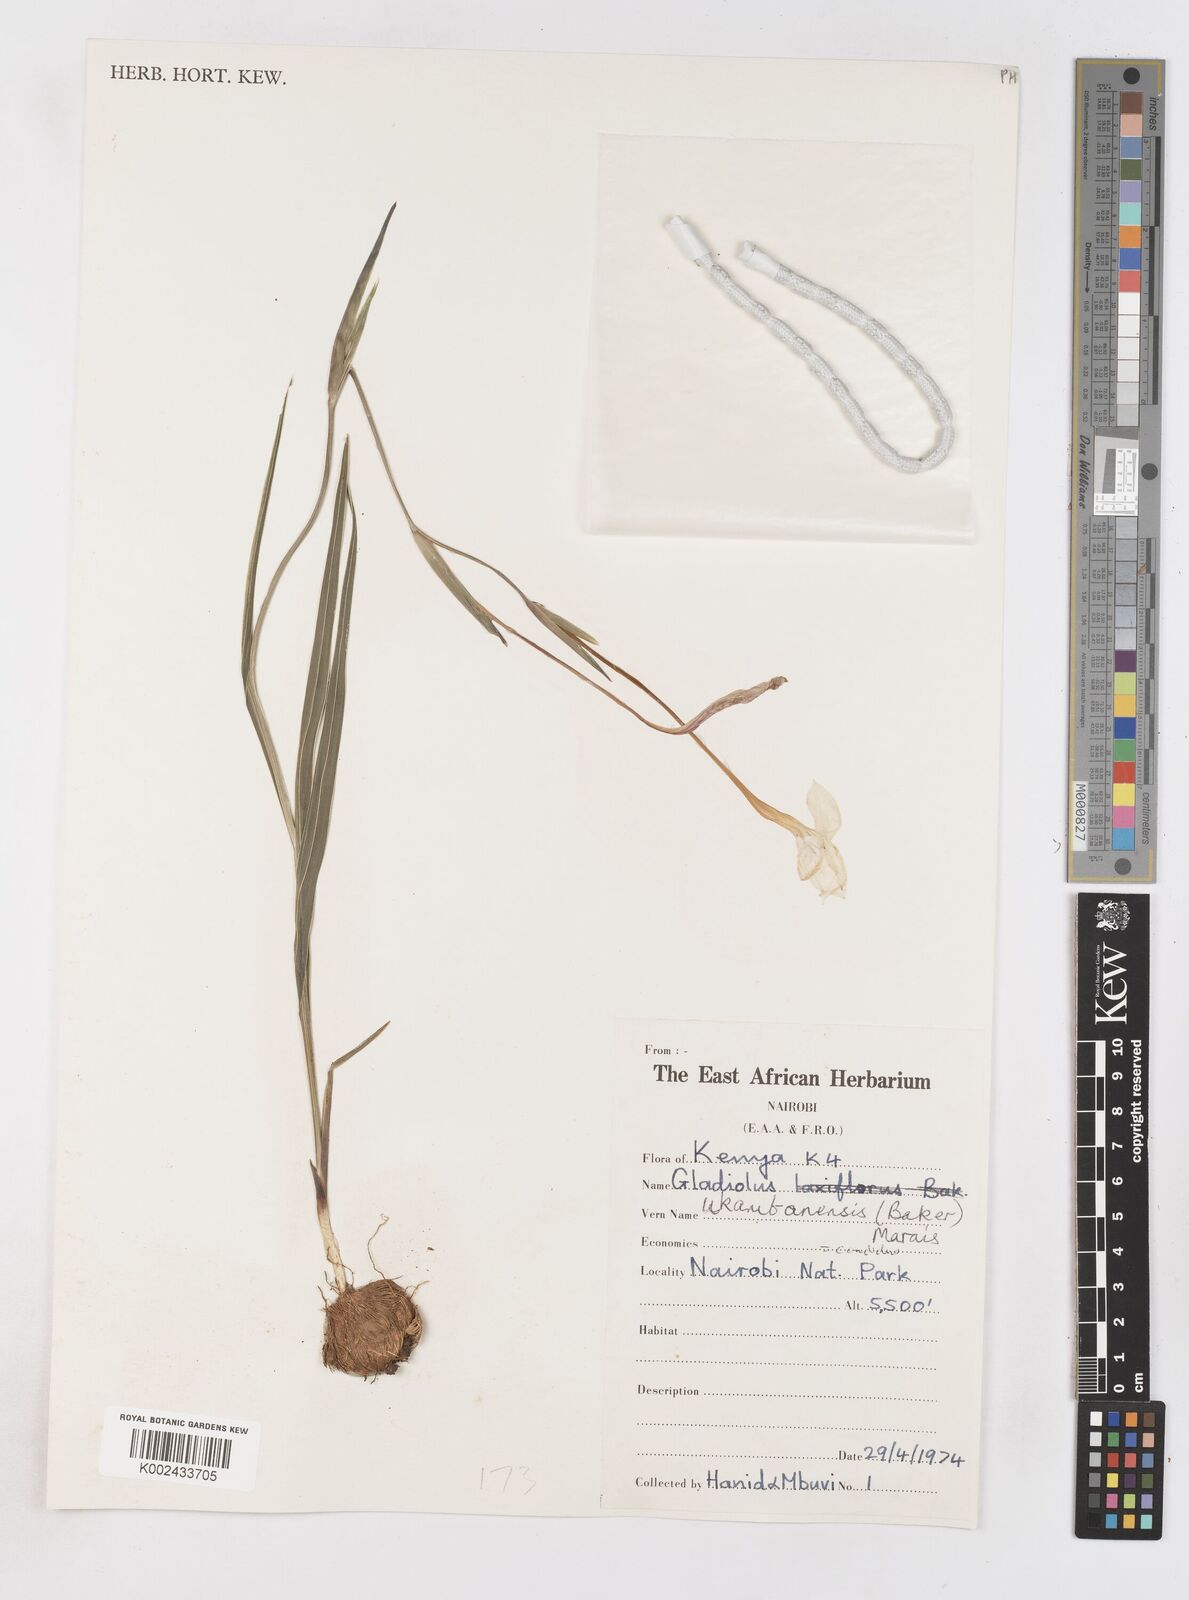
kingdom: Plantae
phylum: Tracheophyta
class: Liliopsida
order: Asparagales
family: Iridaceae
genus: Gladiolus
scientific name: Gladiolus candidus
